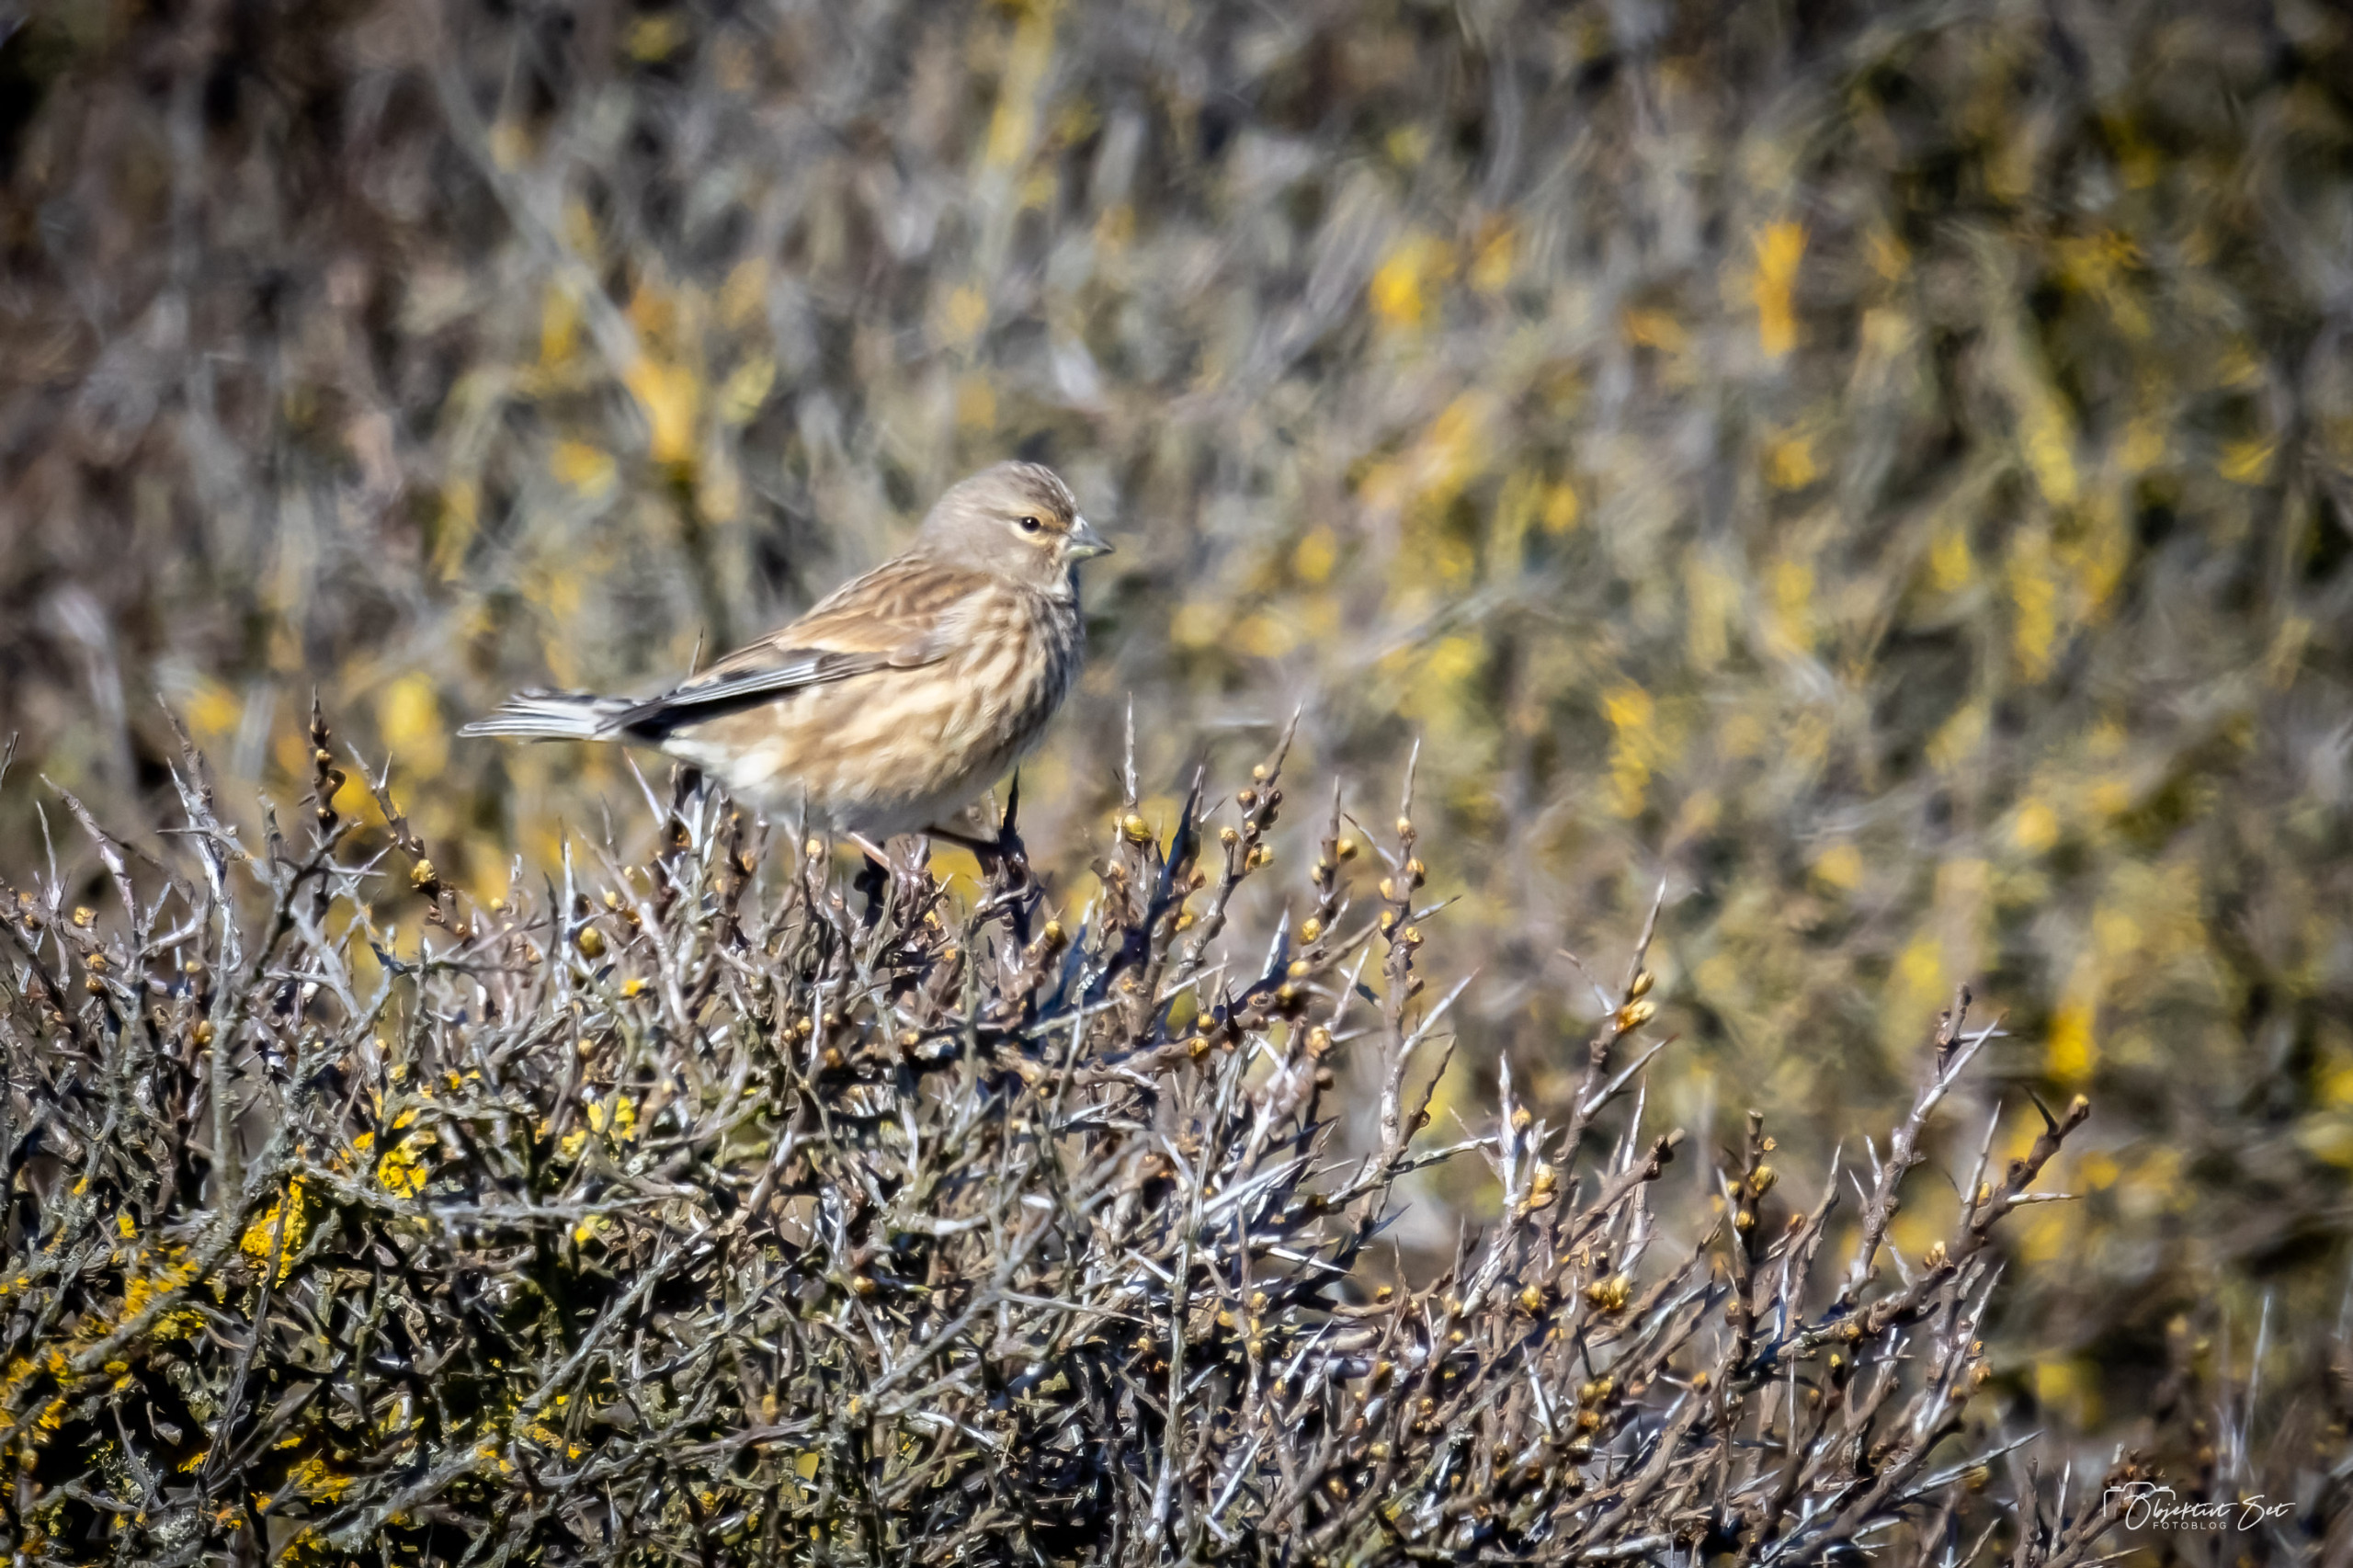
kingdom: Animalia
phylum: Chordata
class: Aves
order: Passeriformes
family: Fringillidae
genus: Linaria
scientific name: Linaria cannabina
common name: Tornirisk
